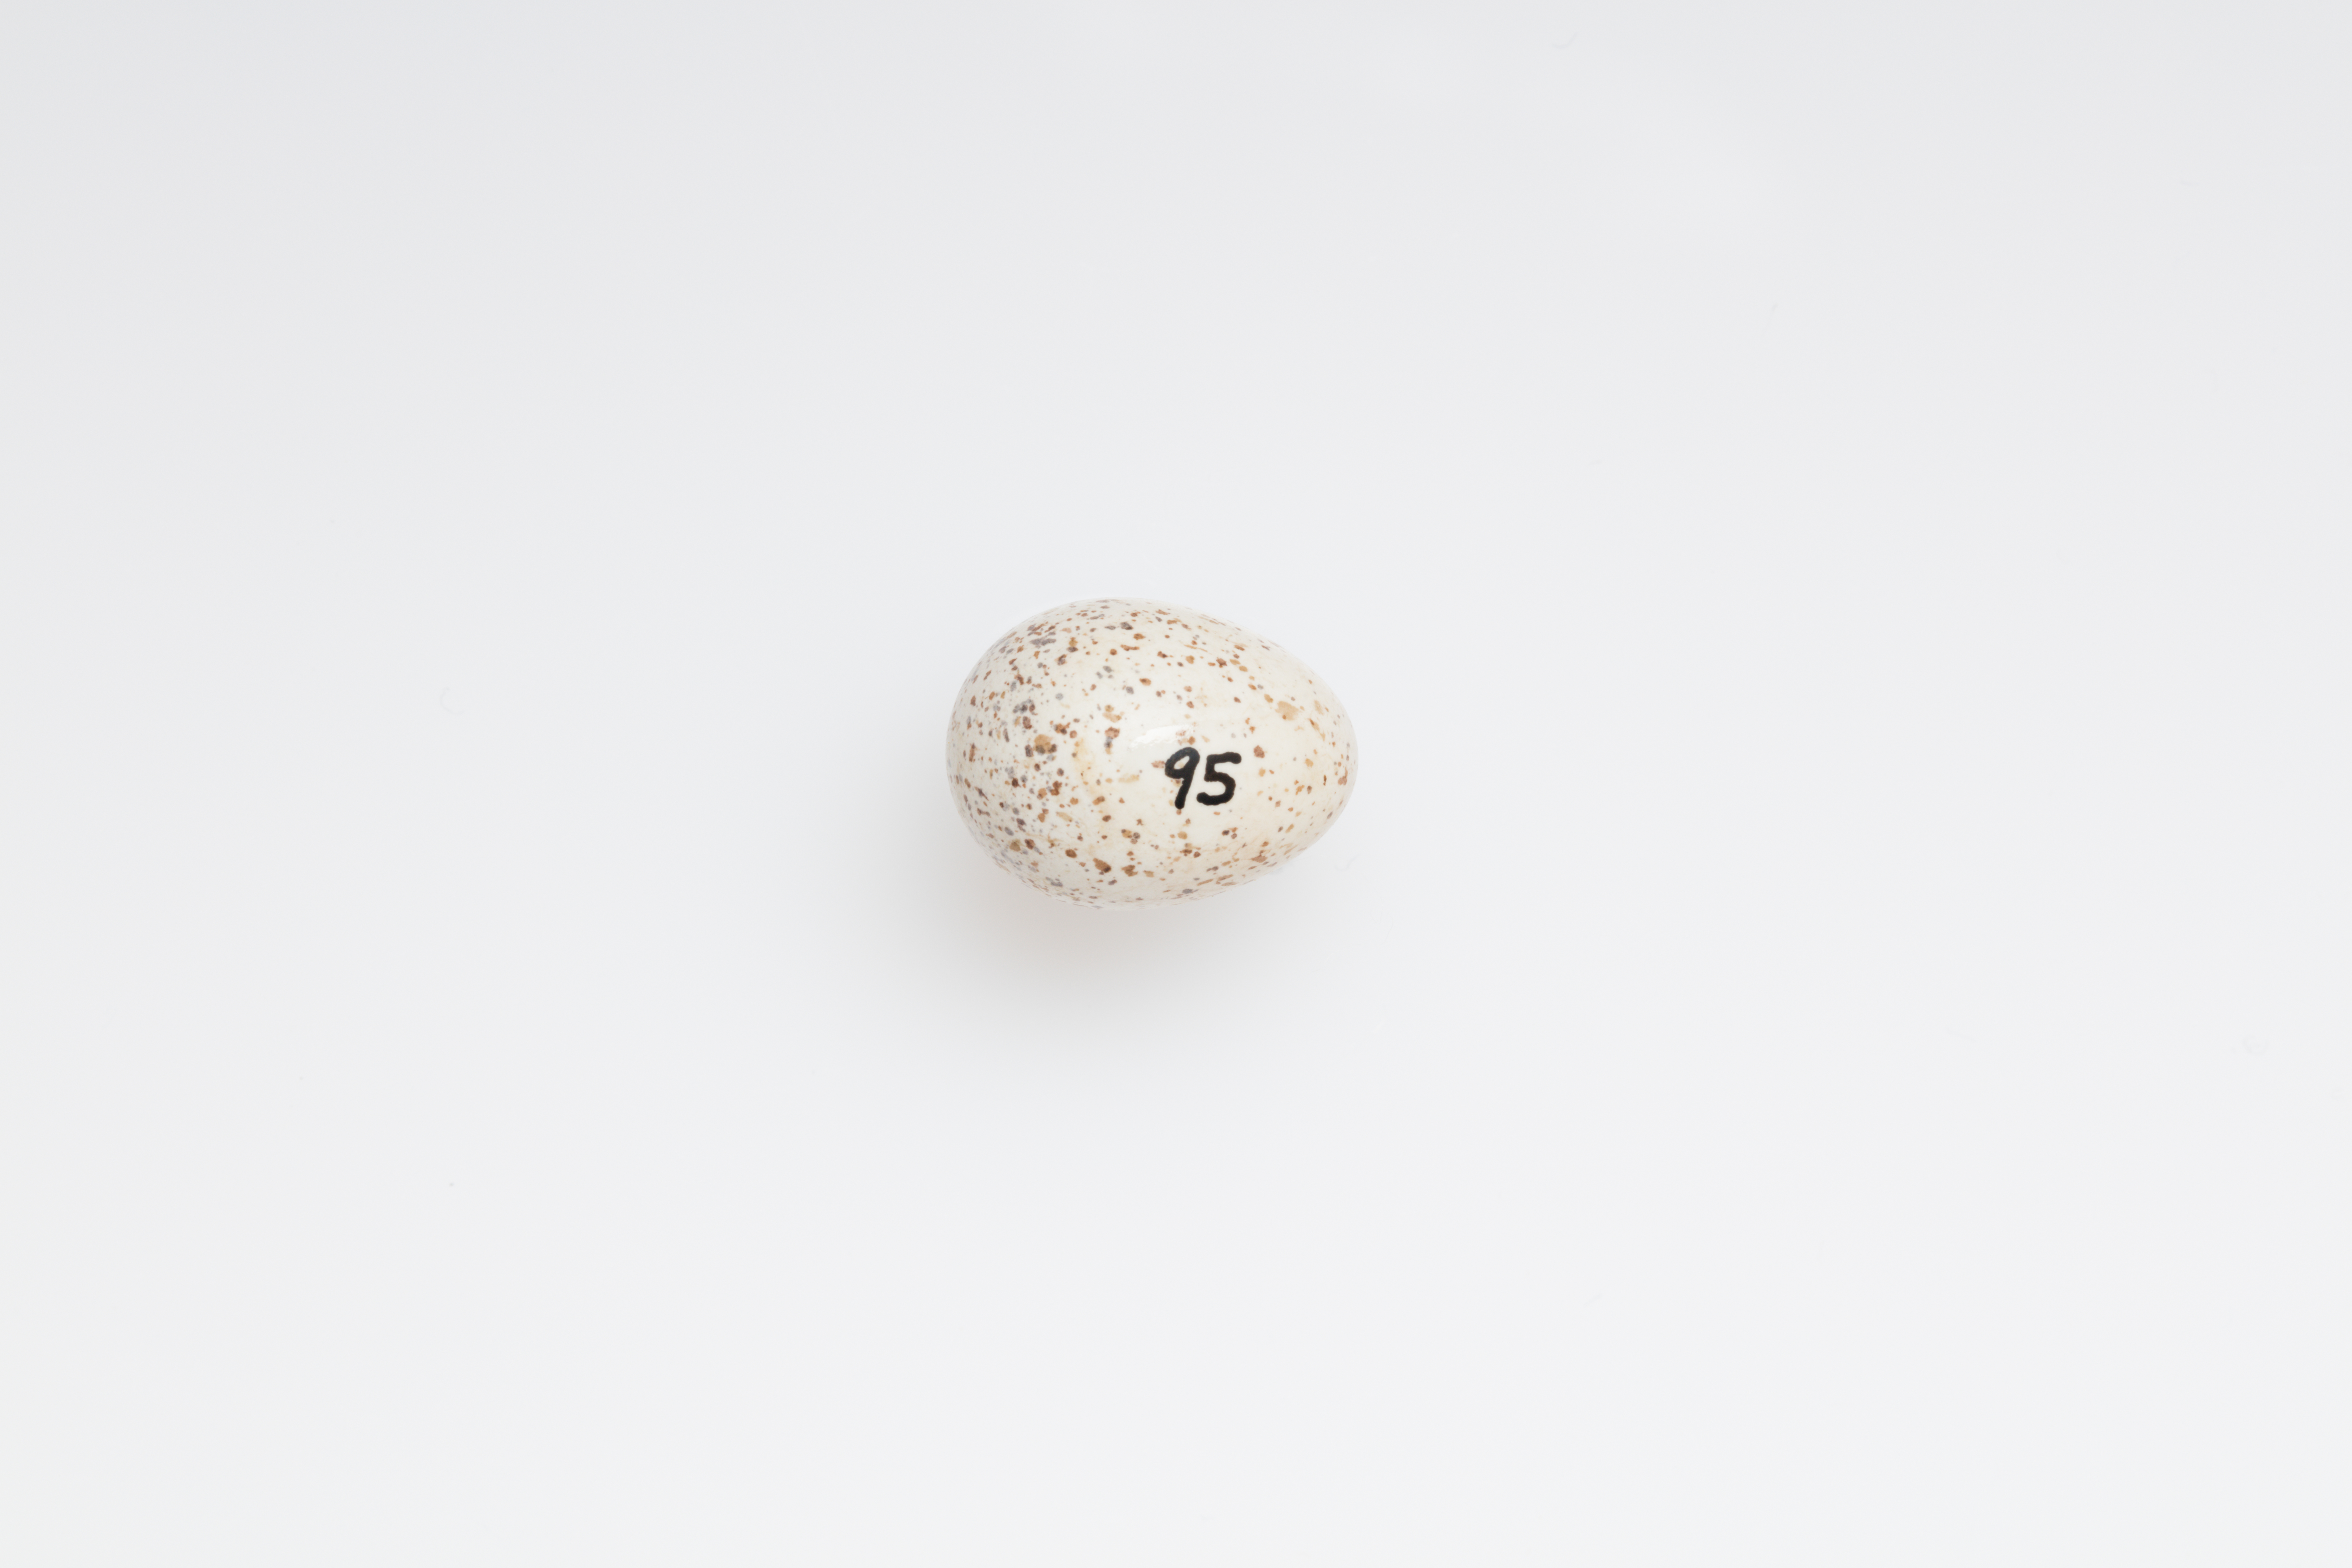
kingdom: Animalia
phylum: Chordata
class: Aves
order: Passeriformes
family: Hirundinidae
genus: Hirundo
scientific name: Hirundo neoxena
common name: Welcome swallow
